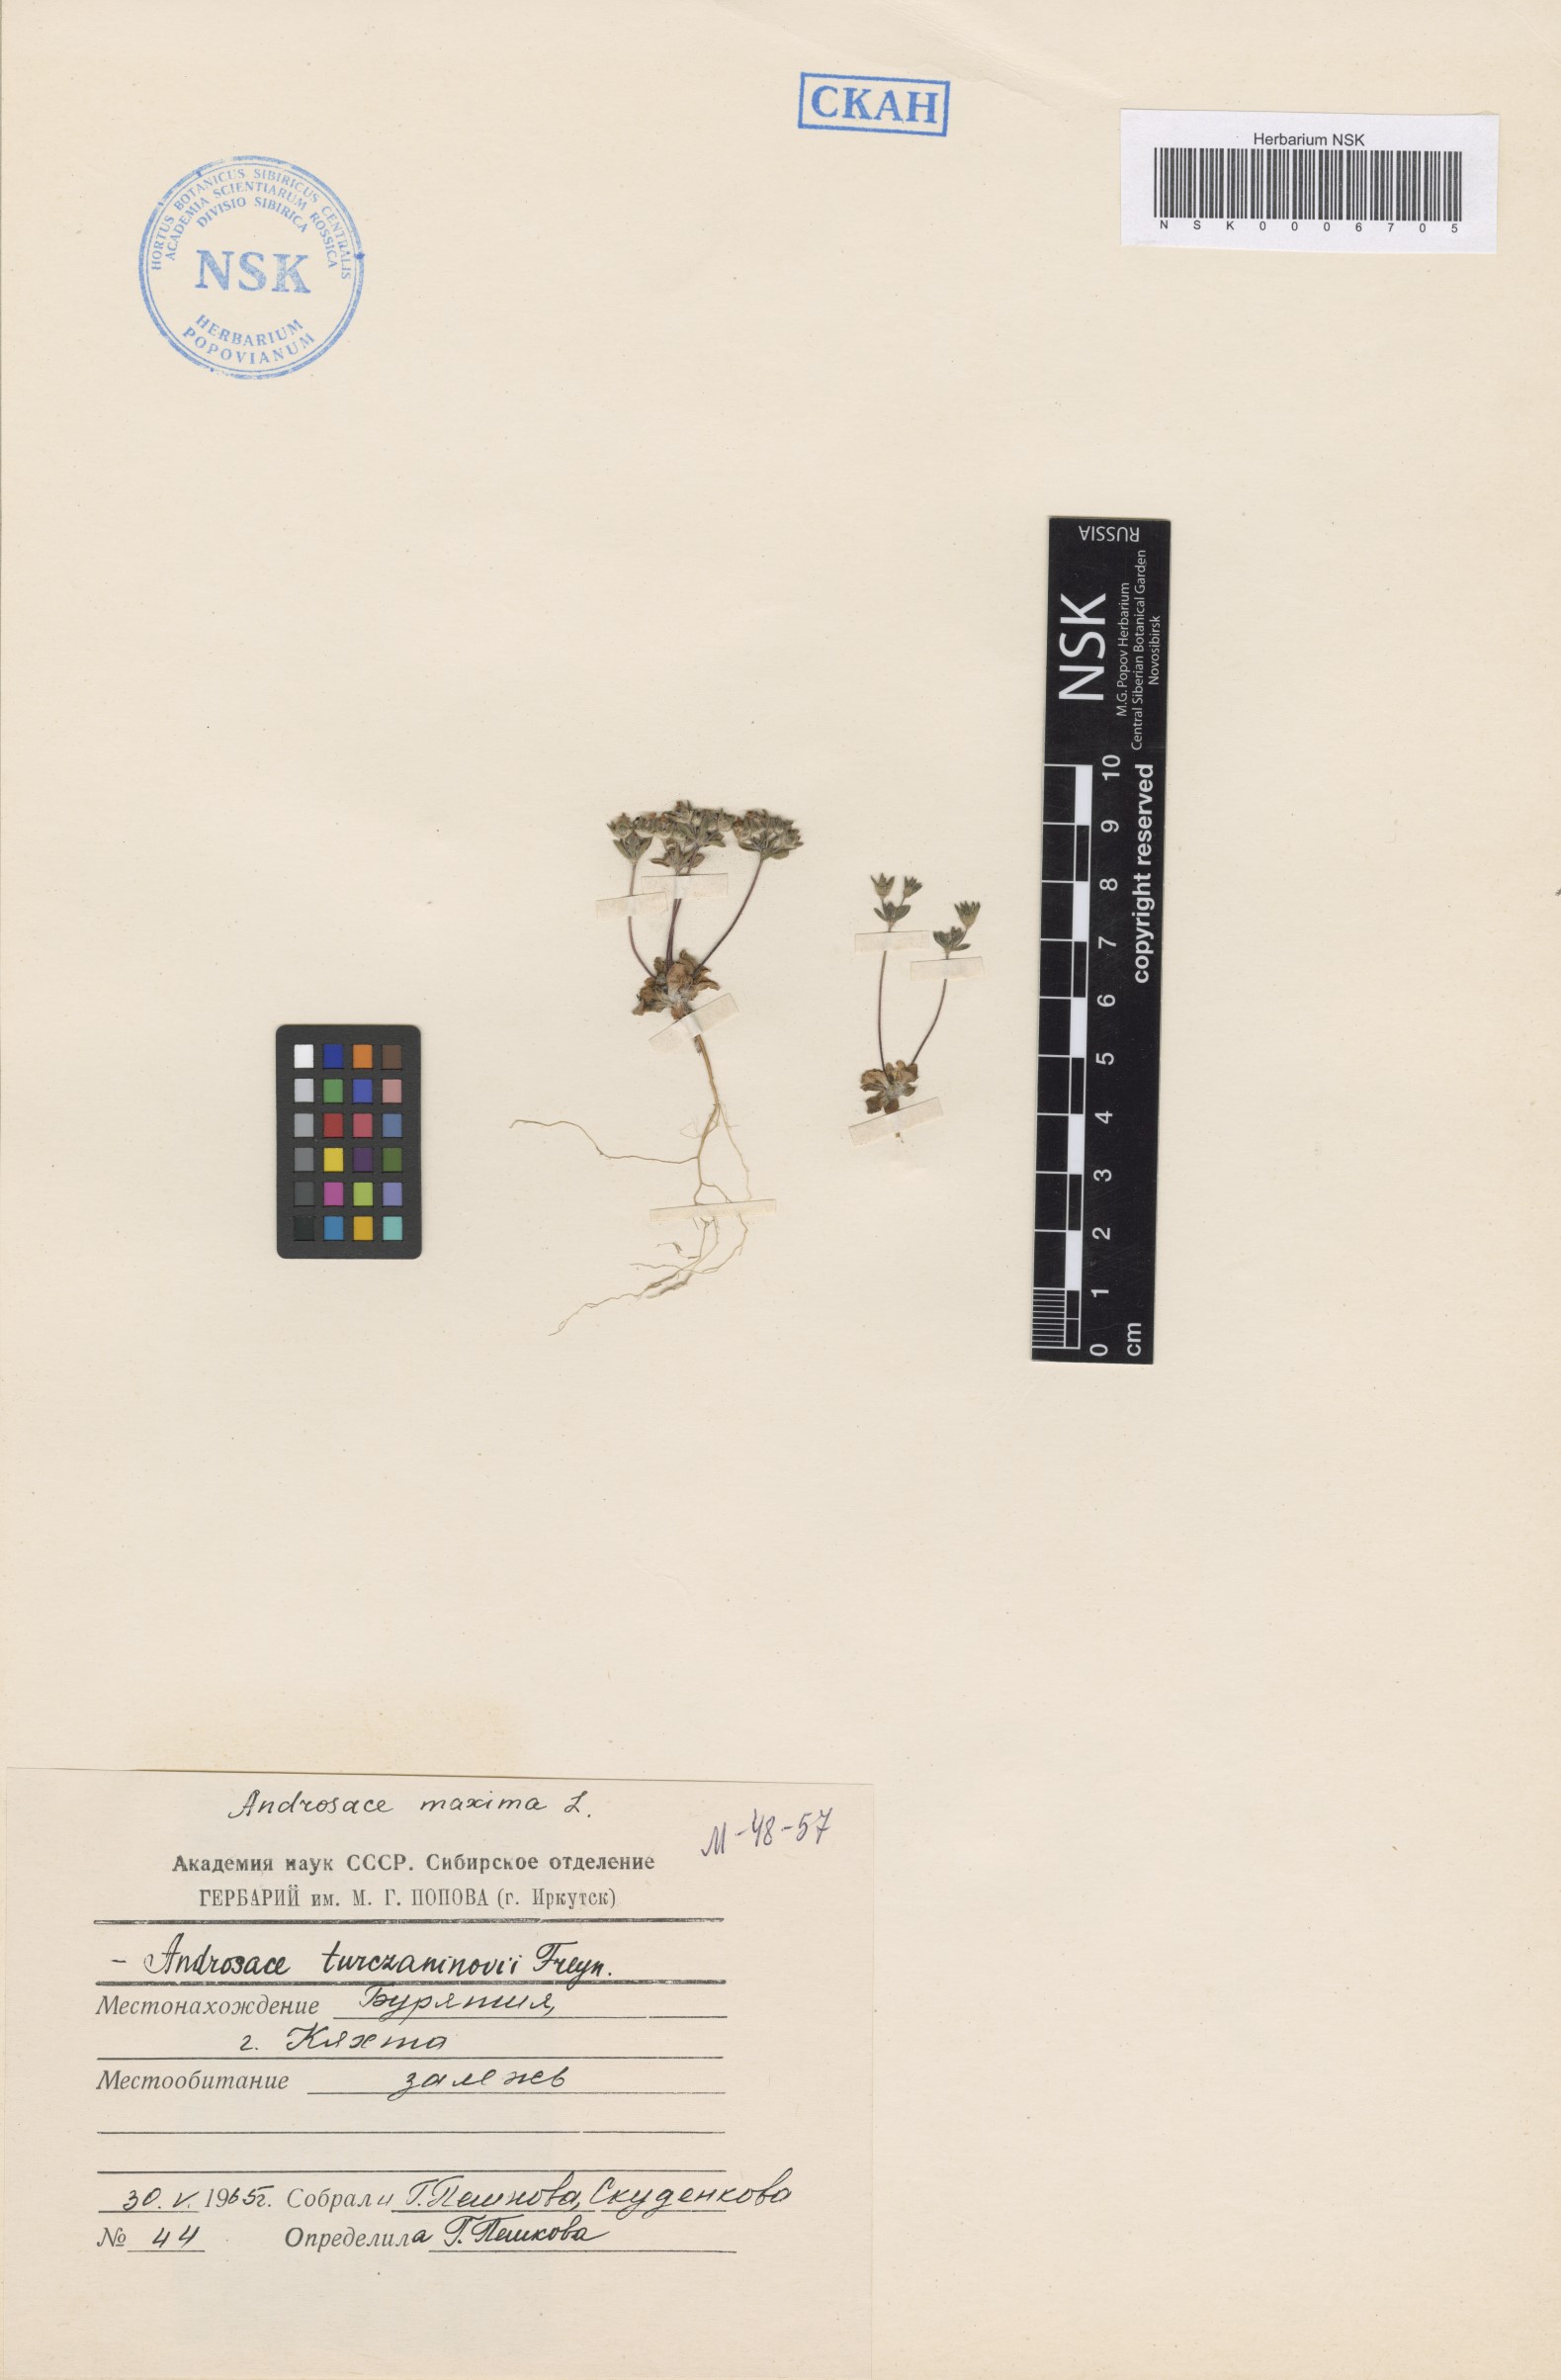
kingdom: Plantae
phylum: Tracheophyta
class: Magnoliopsida
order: Ericales
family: Primulaceae
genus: Androsace
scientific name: Androsace maxima
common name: Annual androsace
